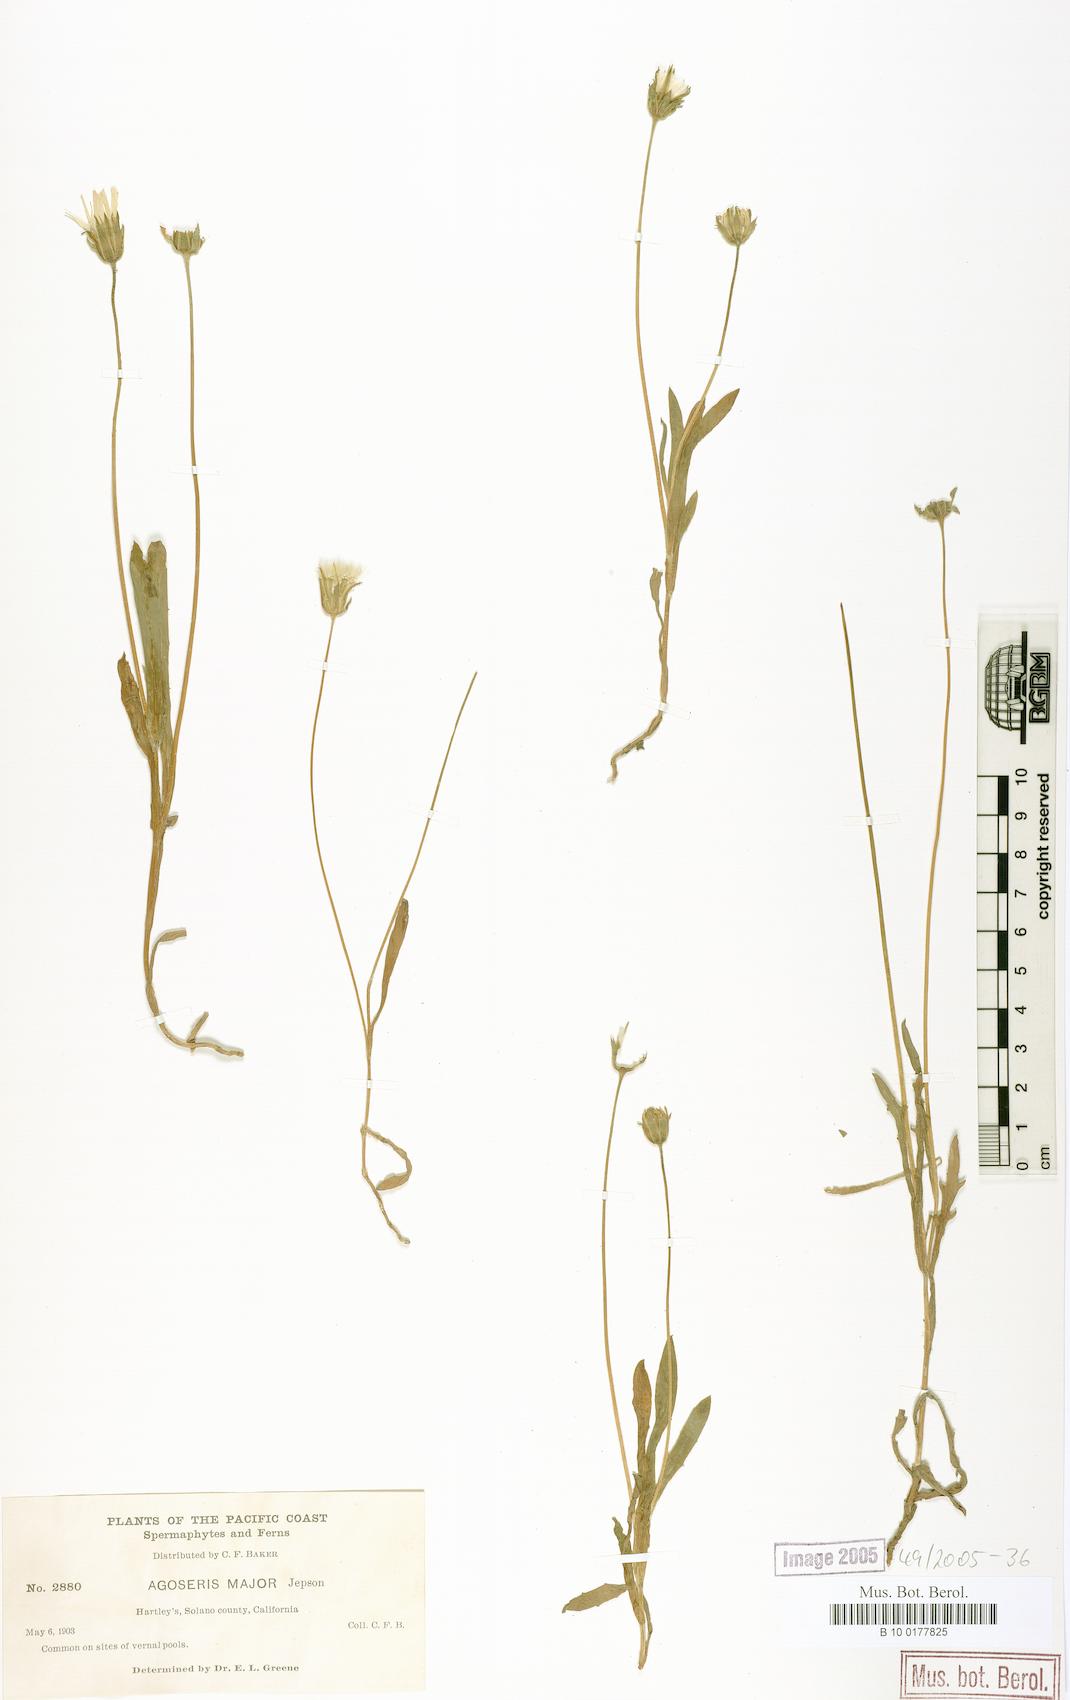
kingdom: Plantae
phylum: Tracheophyta
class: Magnoliopsida
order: Asterales
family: Asteraceae
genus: Agoseris
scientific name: Agoseris heterophylla
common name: Annual agoseris
